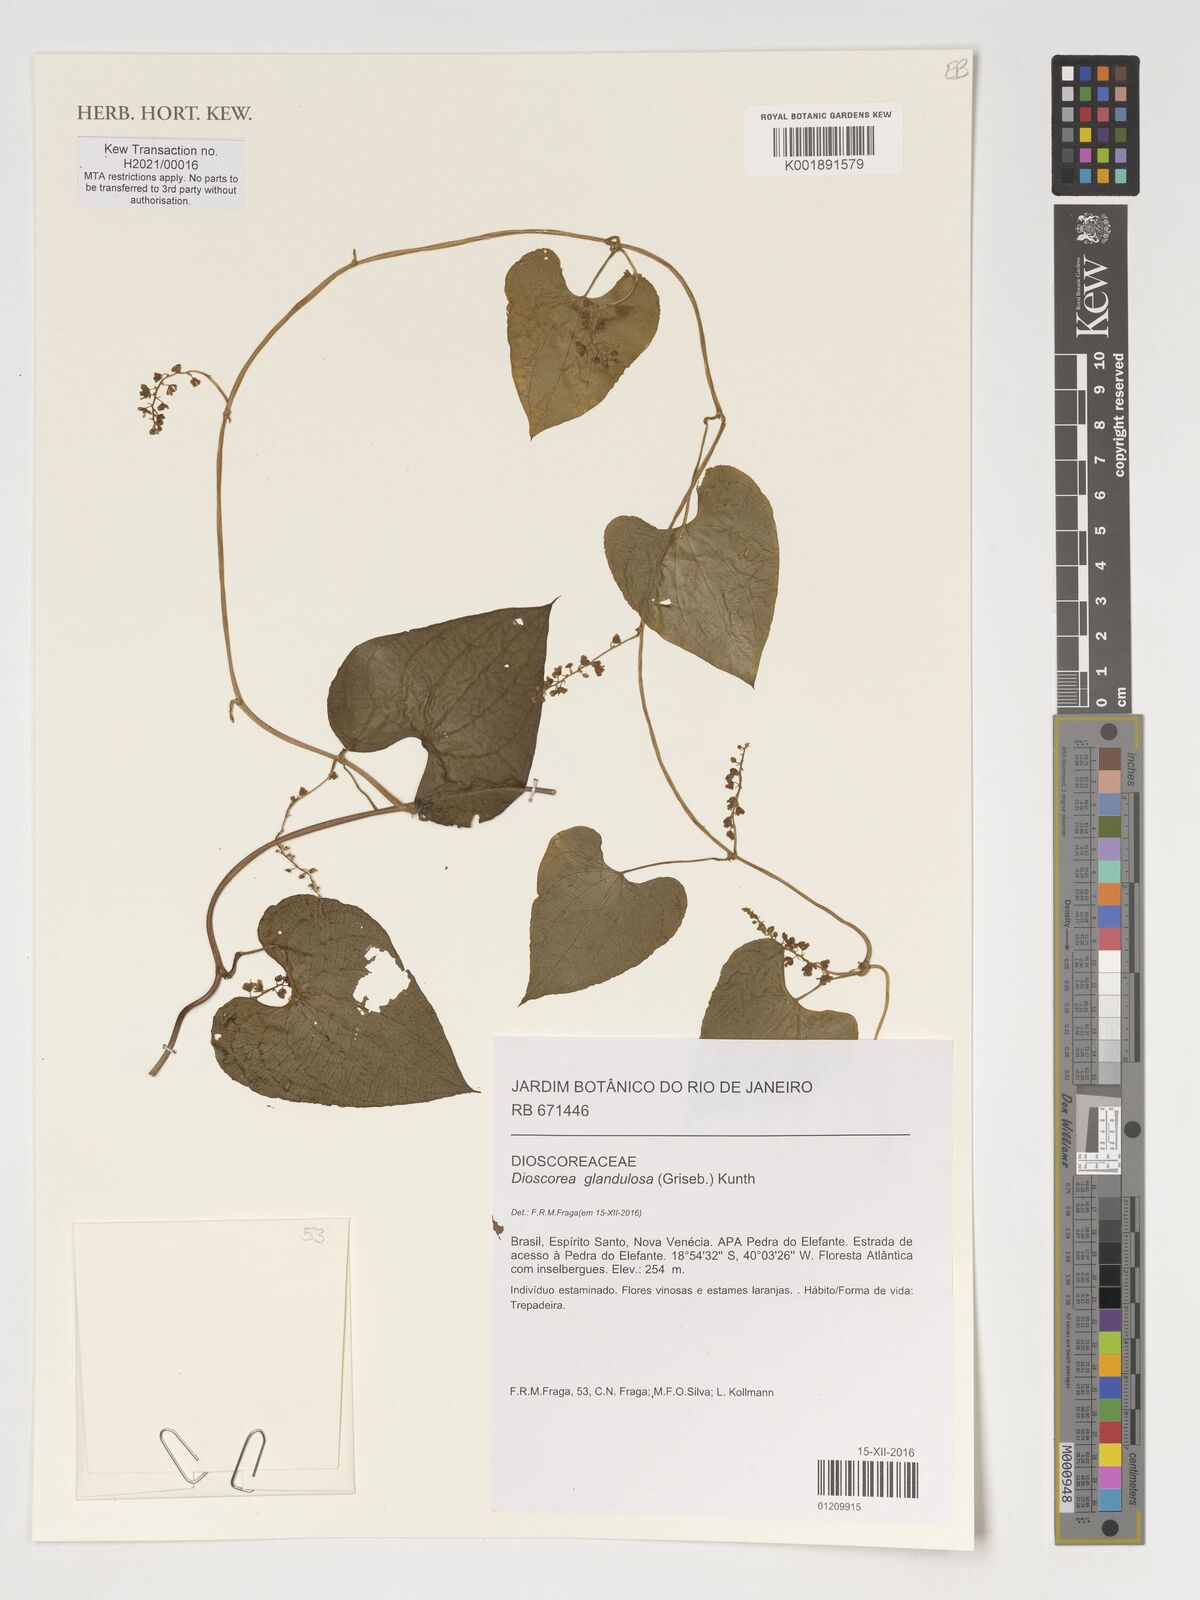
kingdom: Plantae
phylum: Tracheophyta
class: Liliopsida
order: Dioscoreales
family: Dioscoreaceae
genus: Dioscorea
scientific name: Dioscorea glandulosa
